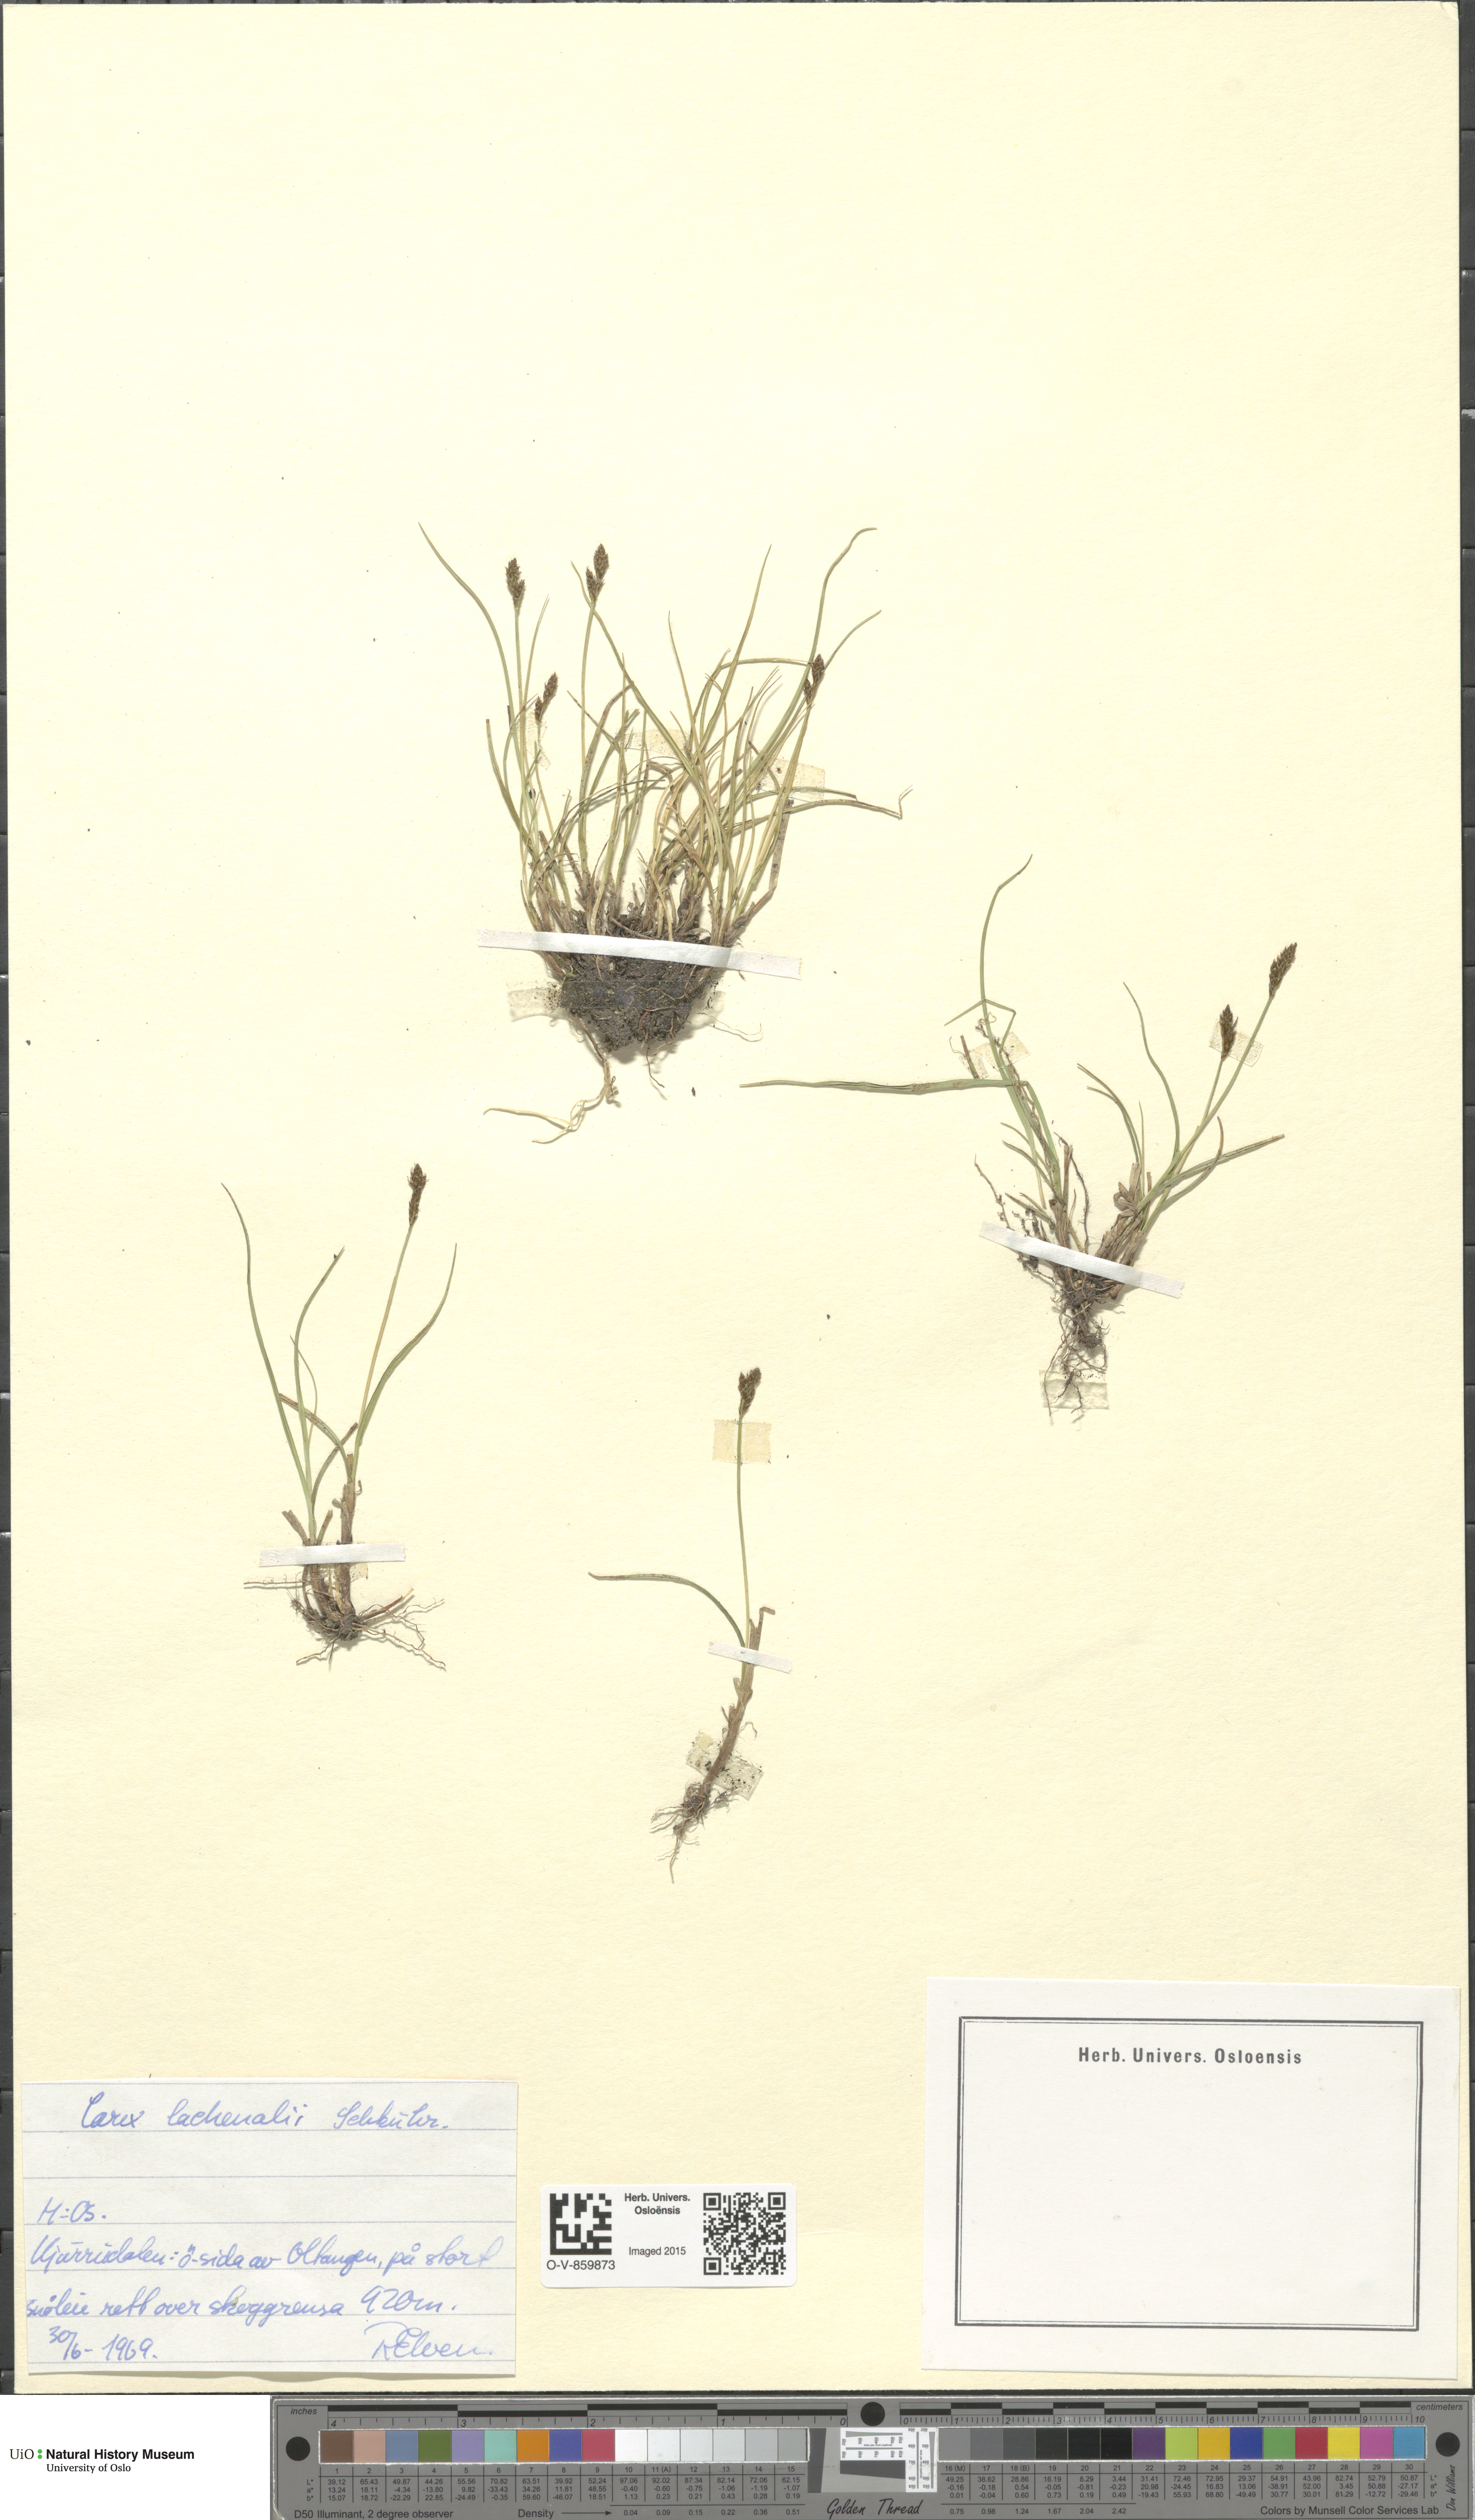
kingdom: Plantae
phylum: Tracheophyta
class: Liliopsida
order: Poales
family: Cyperaceae
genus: Carex
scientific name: Carex lachenalii
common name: Hare's-foot sedge
